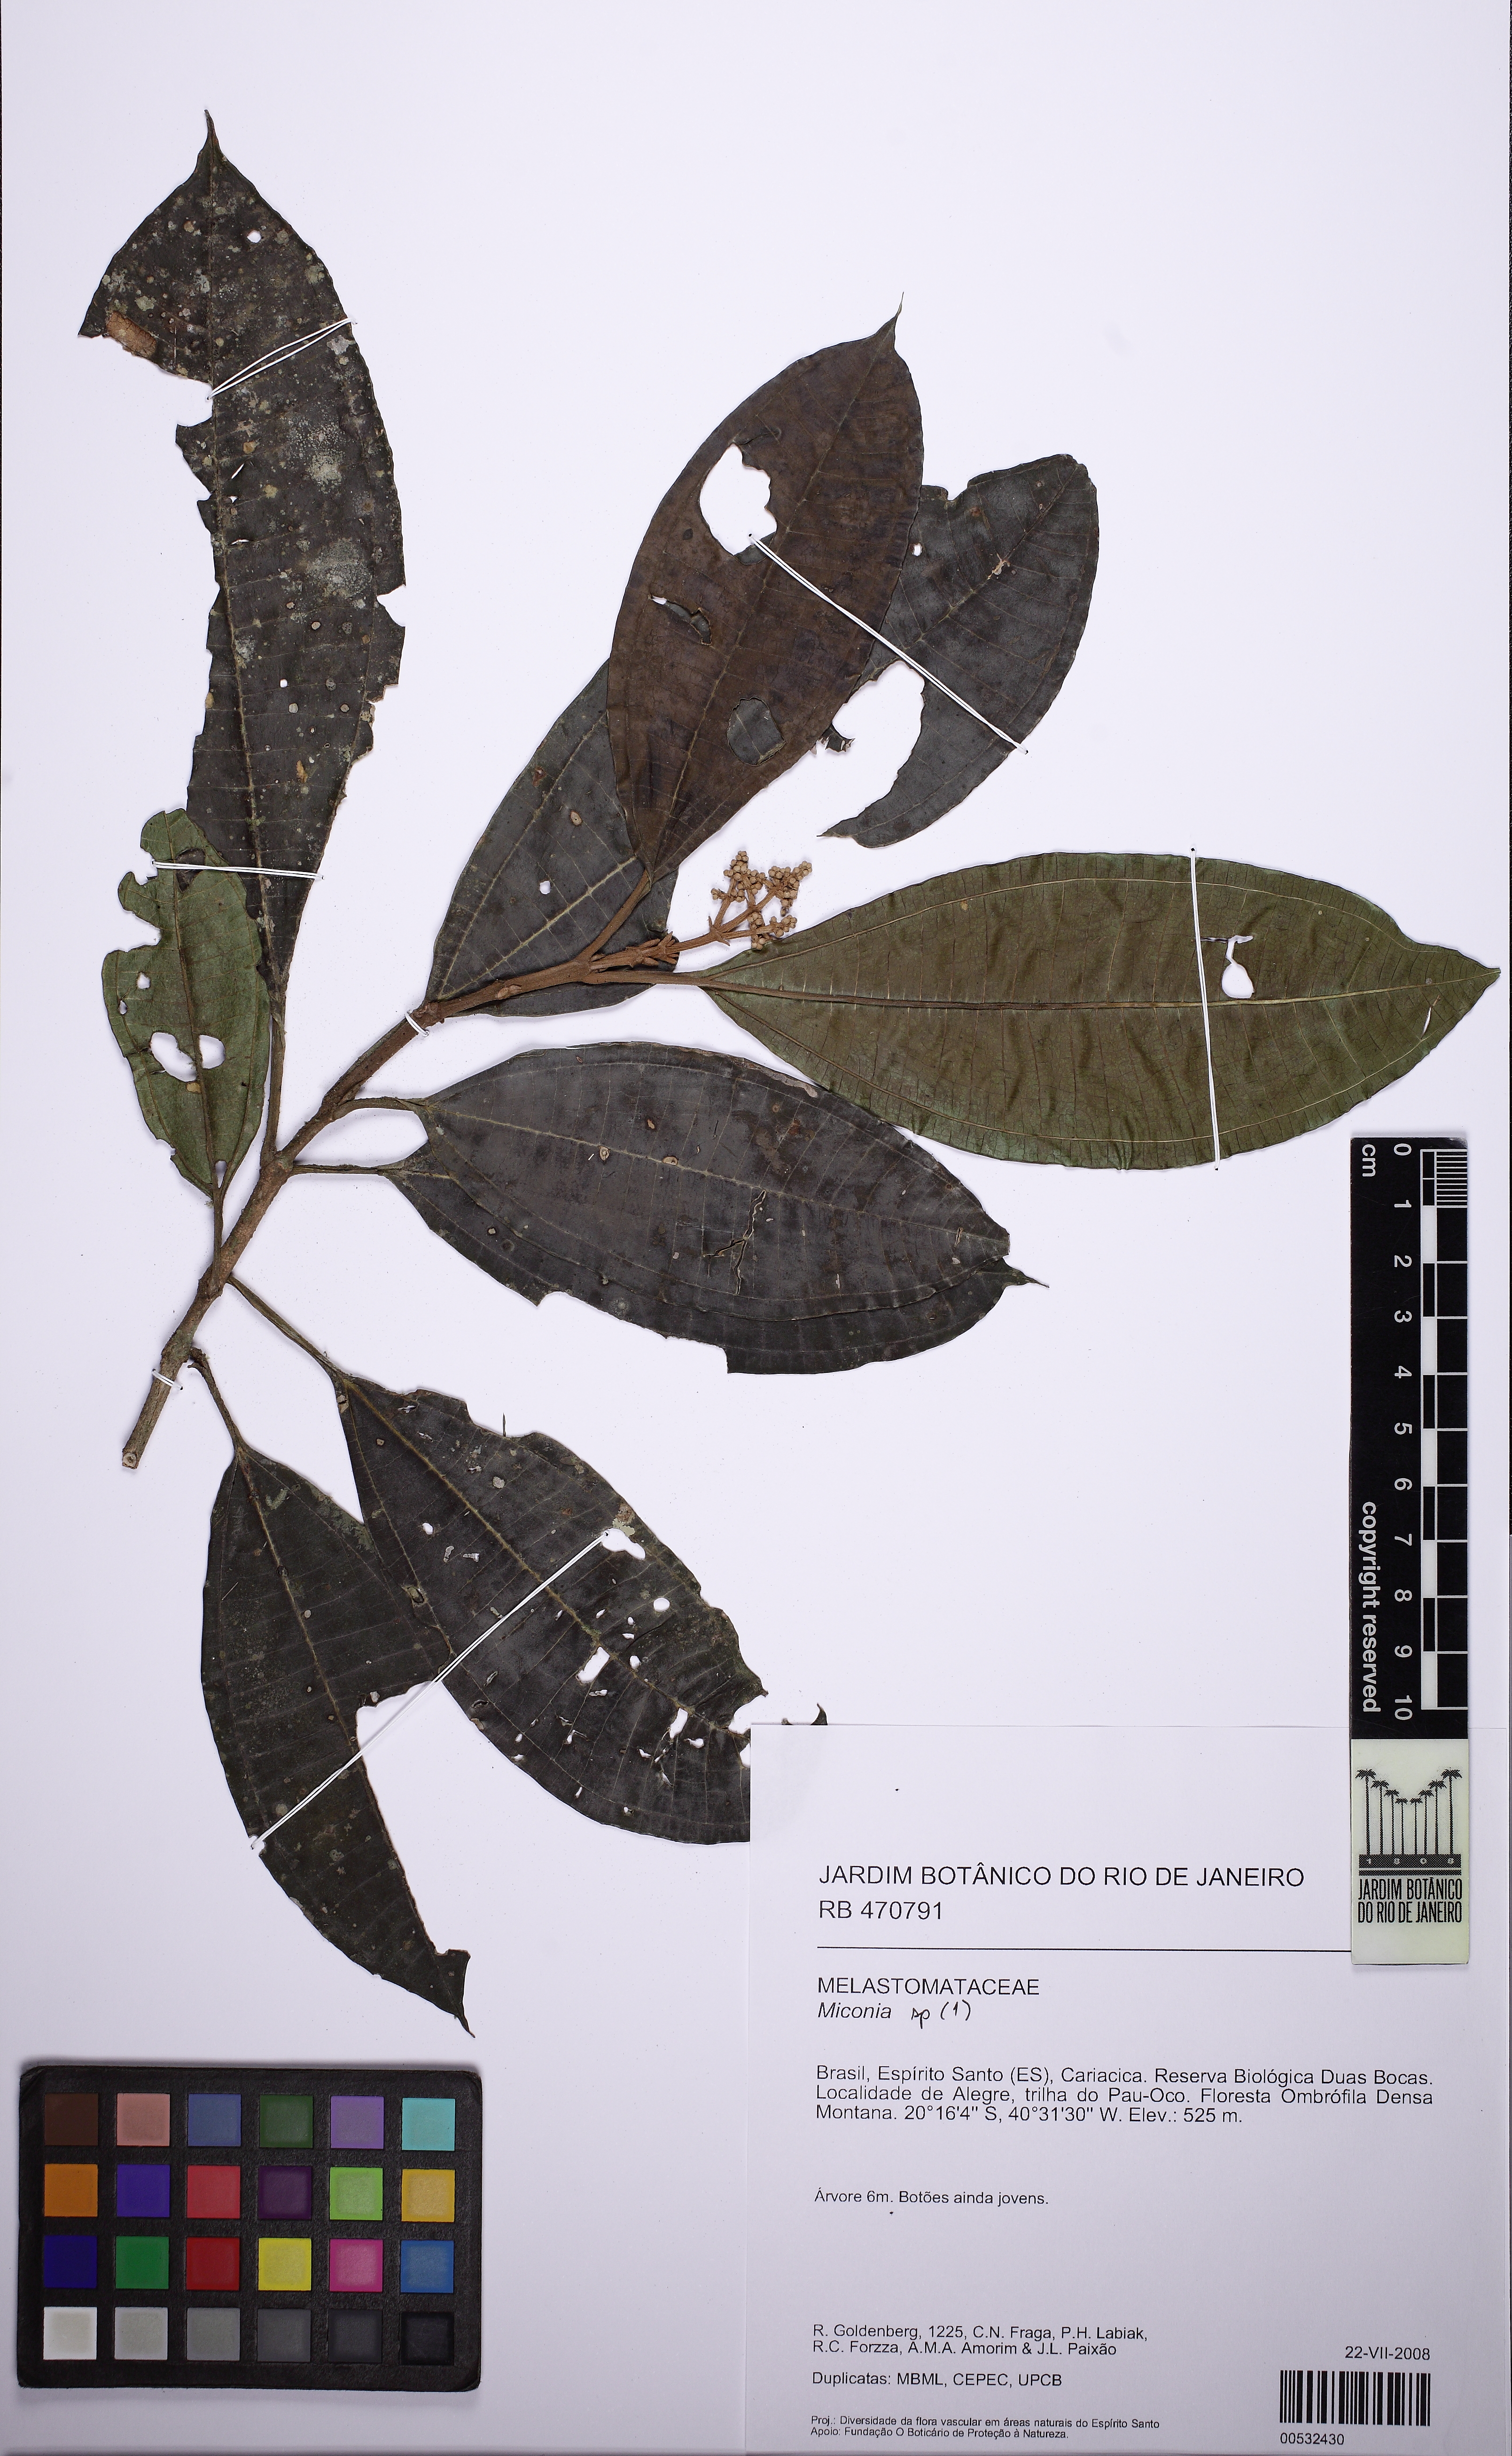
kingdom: Plantae
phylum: Tracheophyta
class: Magnoliopsida
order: Myrtales
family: Melastomataceae
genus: Miconia
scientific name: Miconia prasina
